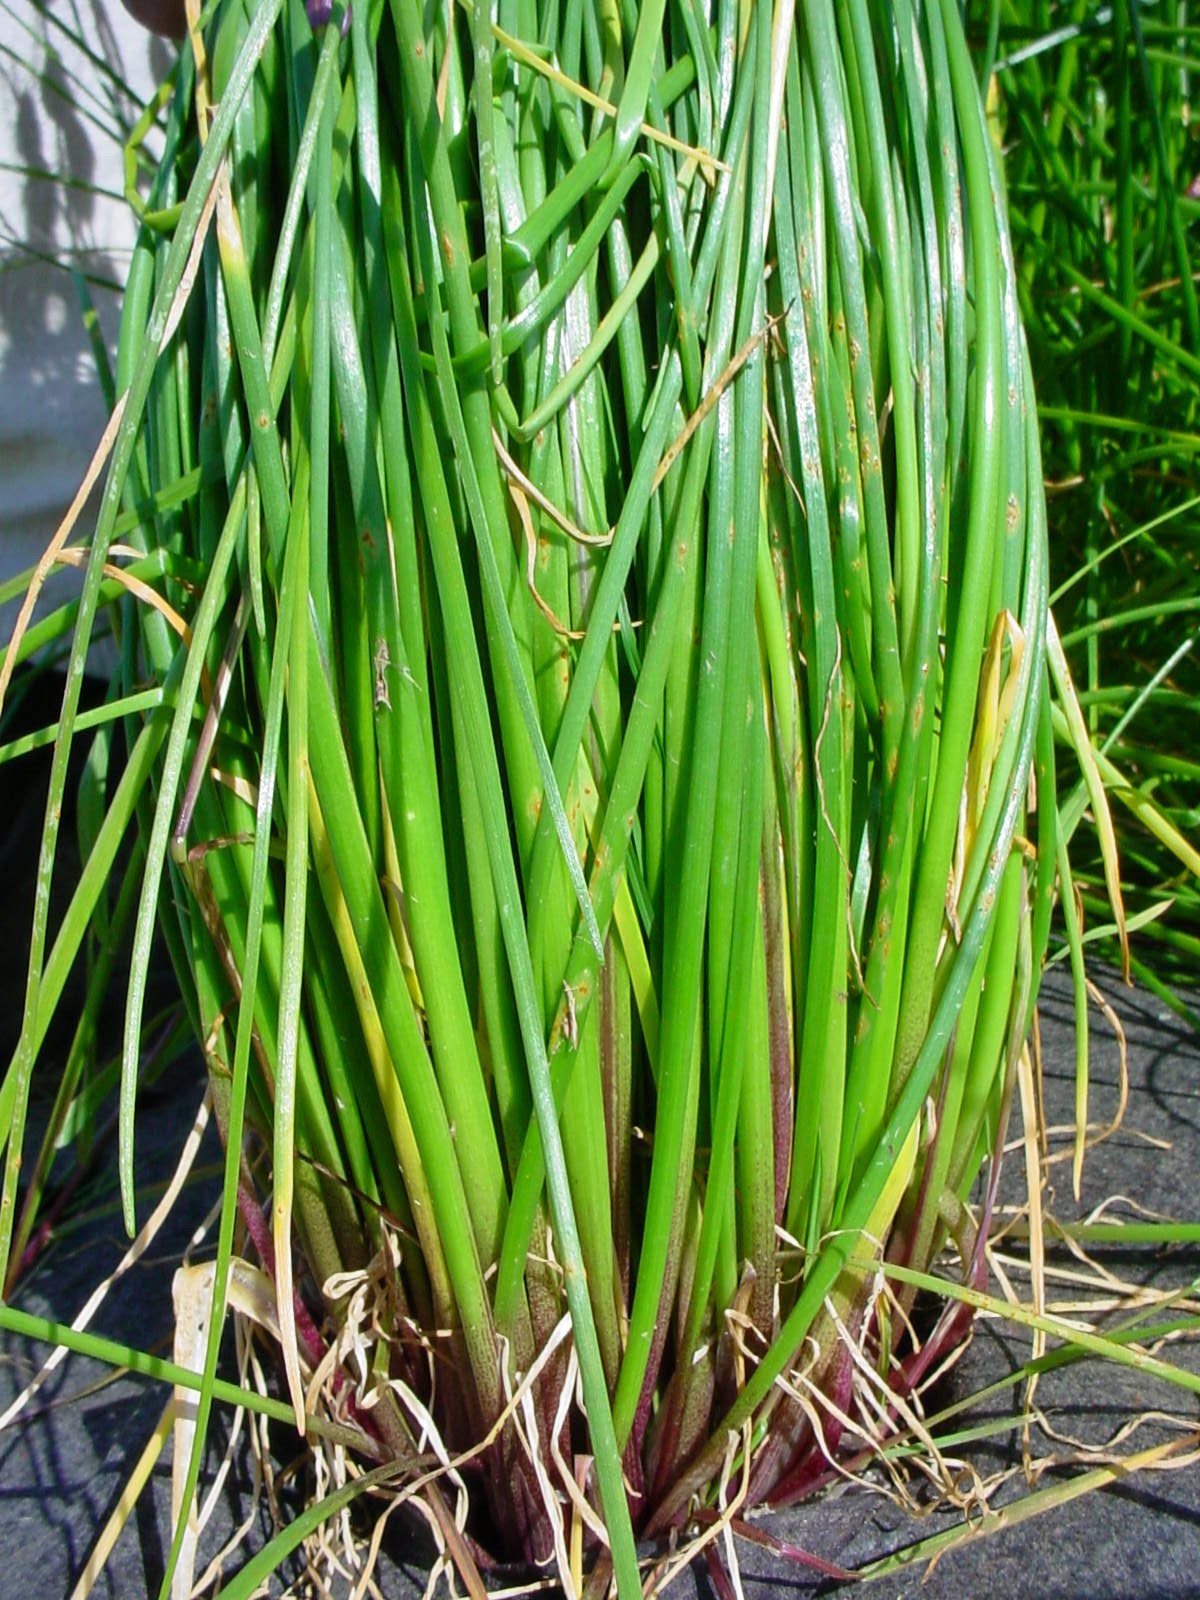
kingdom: Plantae
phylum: Tracheophyta
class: Liliopsida
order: Asparagales
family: Amaryllidaceae
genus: Allium
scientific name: Allium schoenoprasum
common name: Chives
